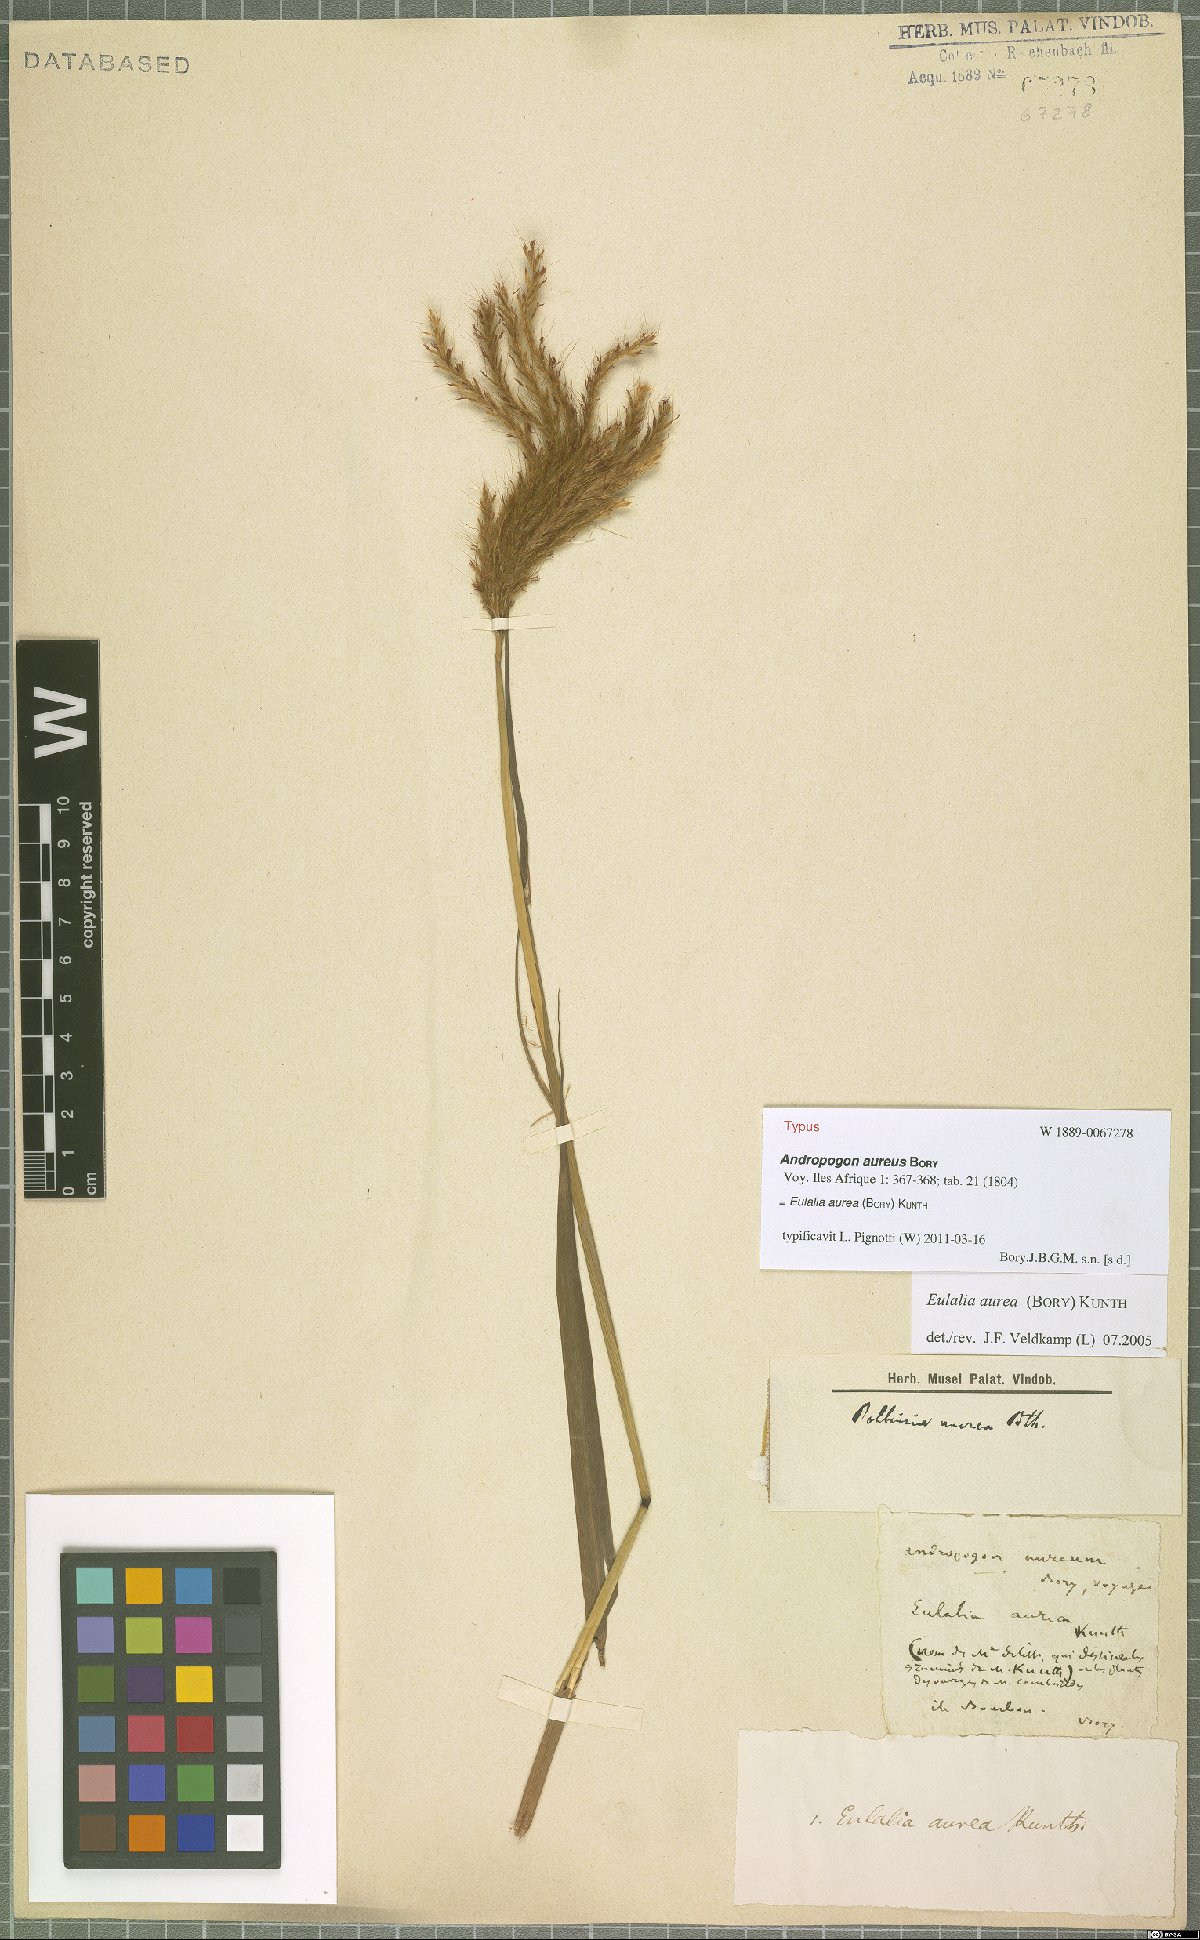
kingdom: Plantae
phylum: Tracheophyta
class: Liliopsida
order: Poales
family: Poaceae
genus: Eulalia
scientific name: Eulalia aurea
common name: Silky browntop
